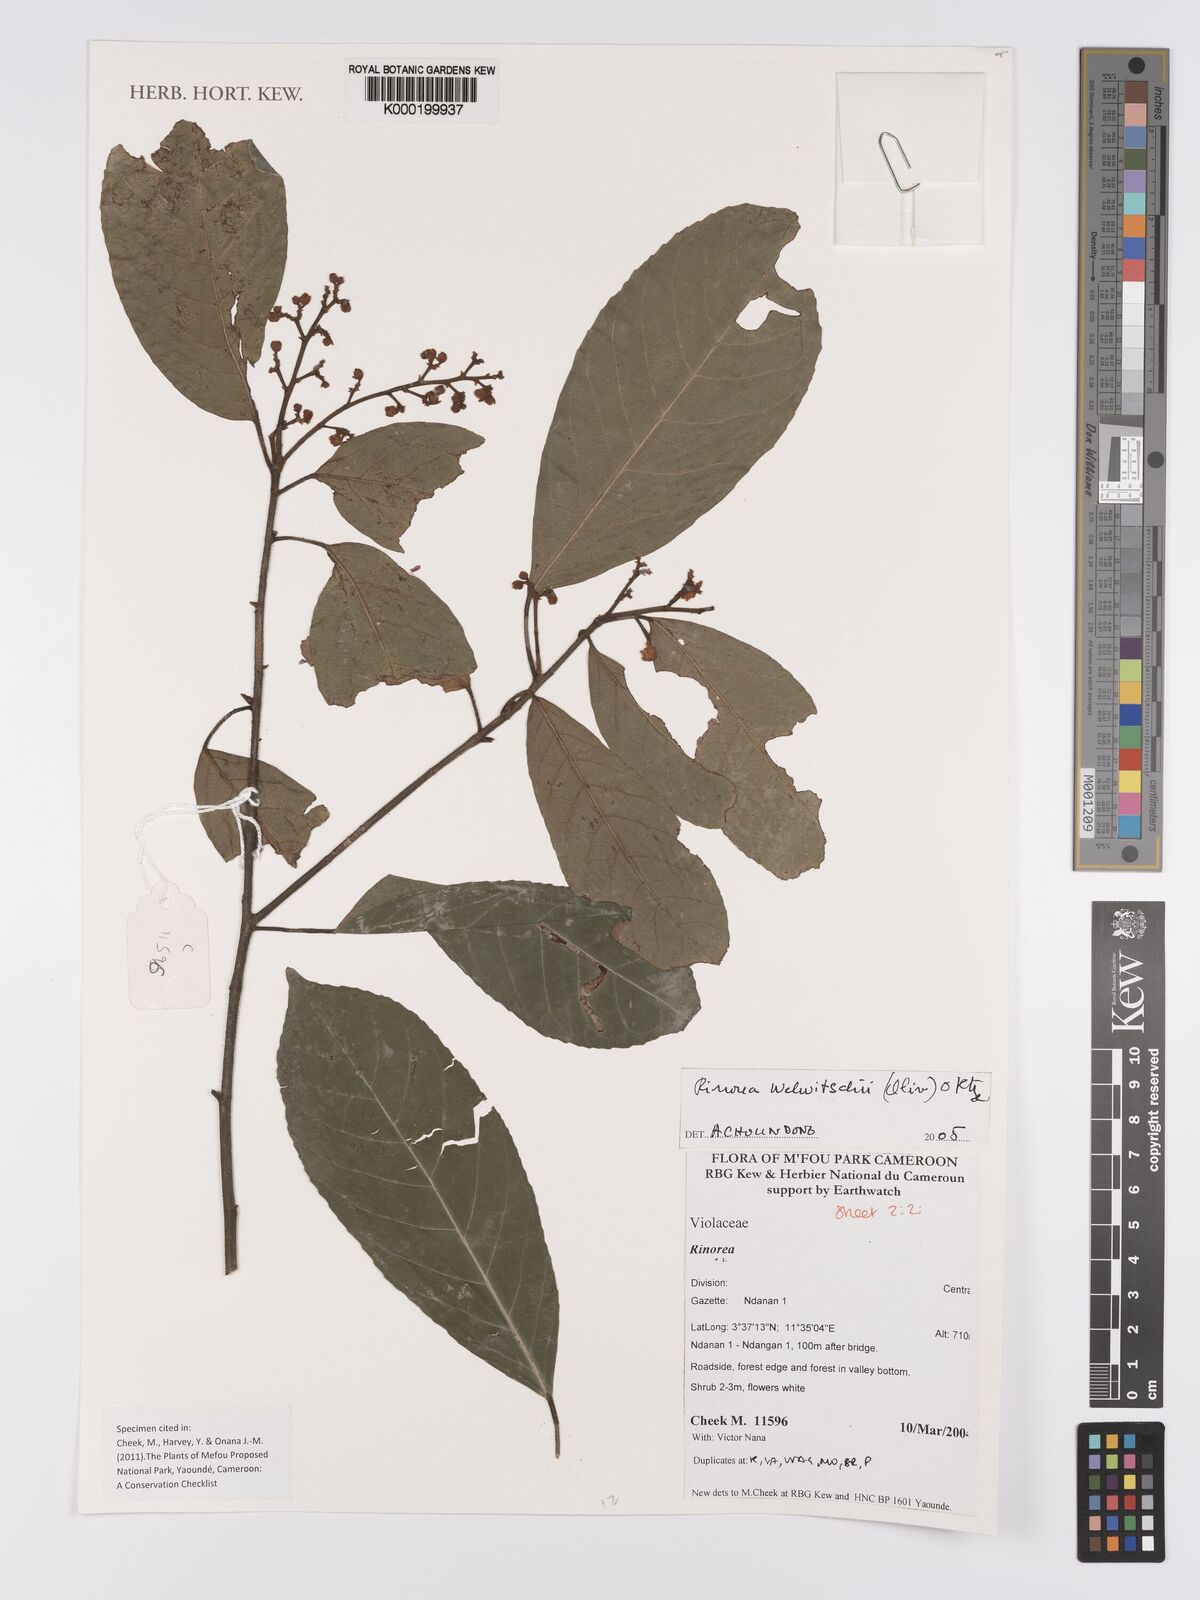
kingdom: Plantae
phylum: Tracheophyta
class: Magnoliopsida
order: Malpighiales
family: Violaceae
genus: Rinorea
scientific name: Rinorea welwitschii
